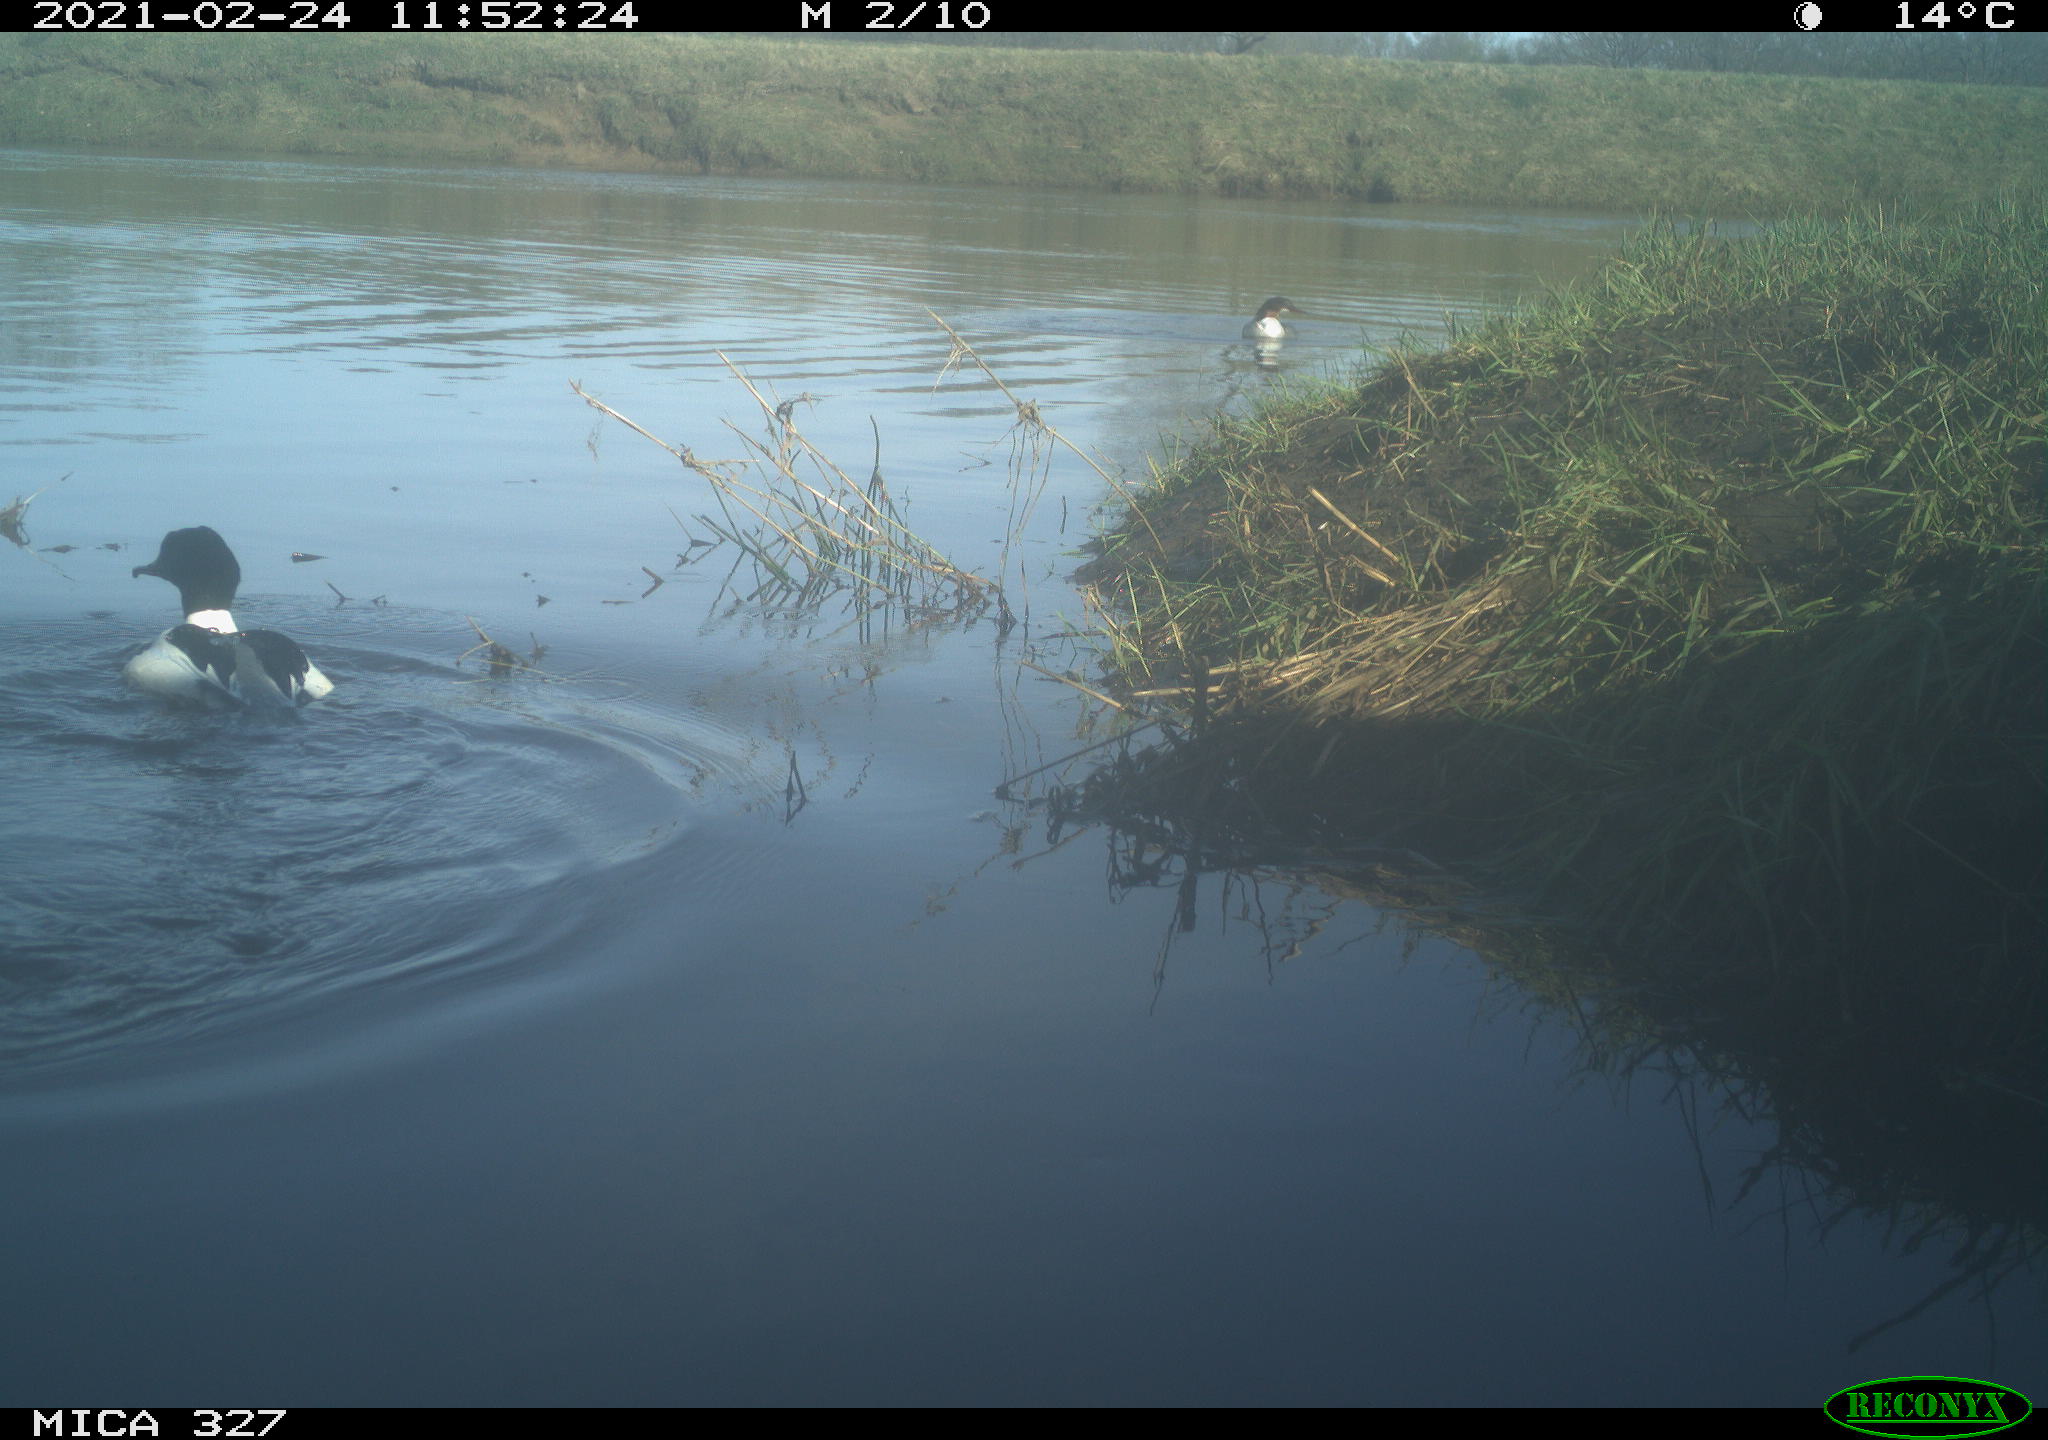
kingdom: Animalia
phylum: Chordata
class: Aves
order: Anseriformes
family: Anatidae
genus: Anas
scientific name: Anas
